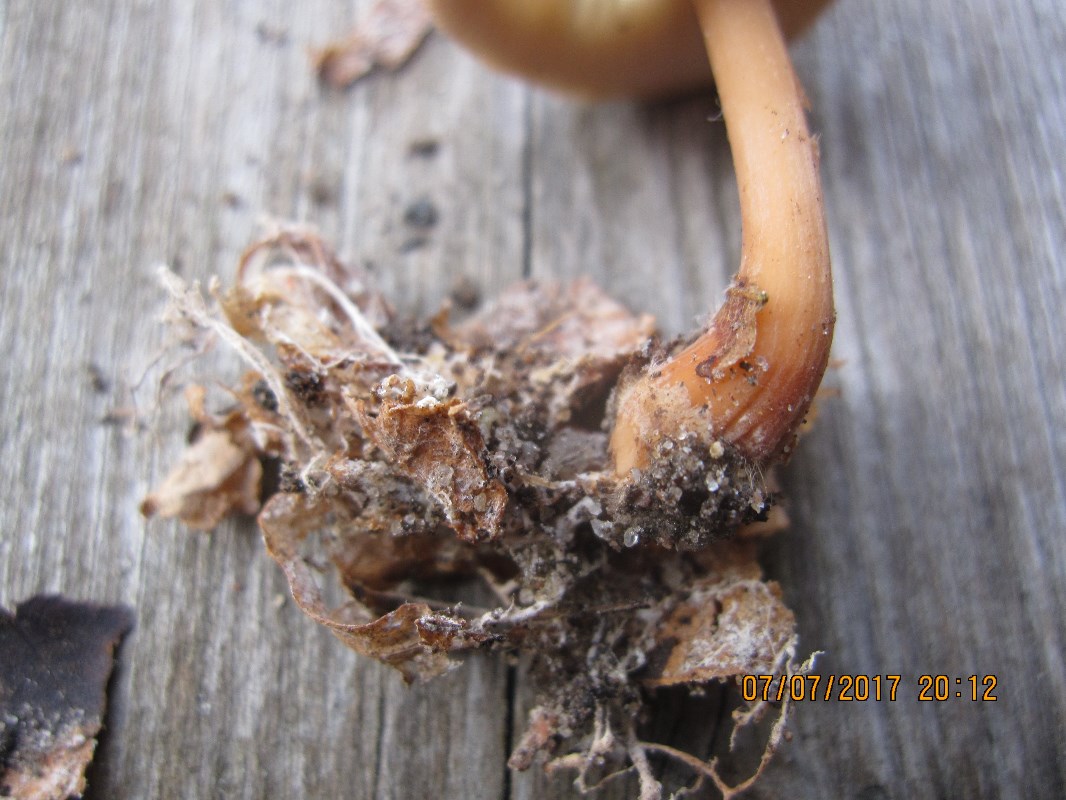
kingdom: Fungi
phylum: Basidiomycota
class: Agaricomycetes
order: Agaricales
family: Omphalotaceae
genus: Gymnopus
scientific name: Gymnopus aquosus
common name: bleg fladhat
